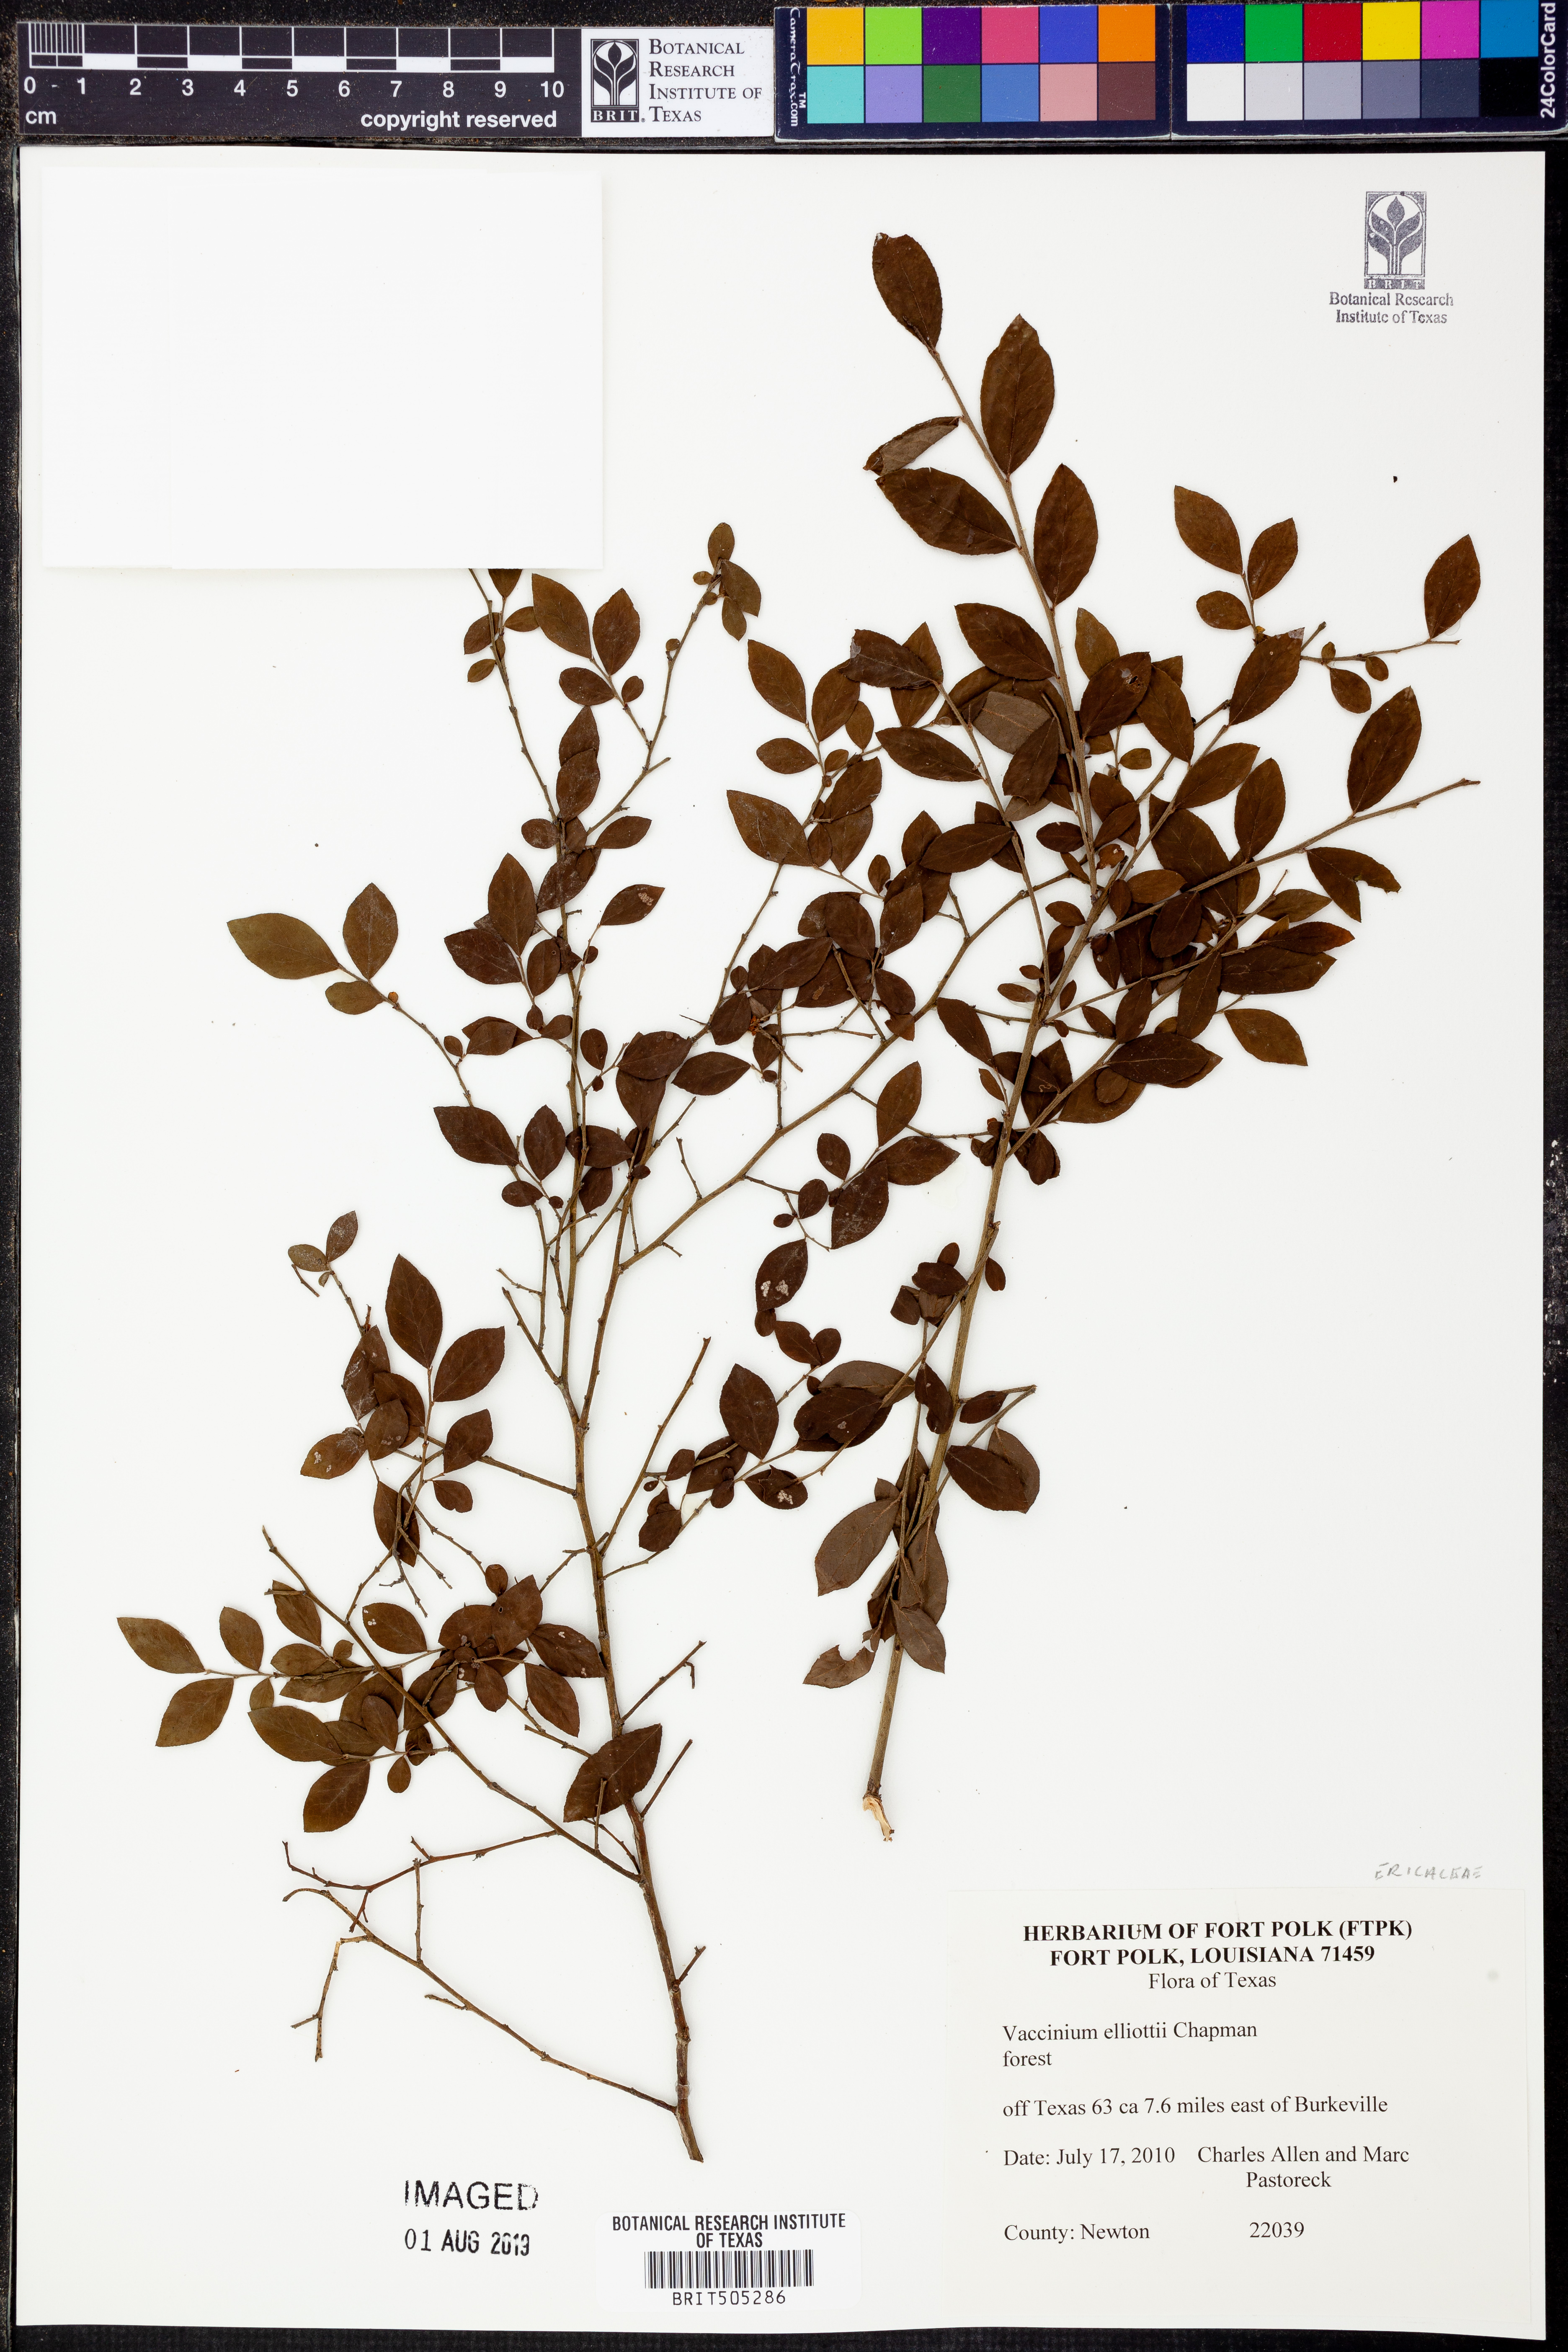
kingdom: Plantae
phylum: Tracheophyta
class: Magnoliopsida
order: Ericales
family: Ericaceae
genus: Vaccinium
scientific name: Vaccinium corymbosum
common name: Blueberry
